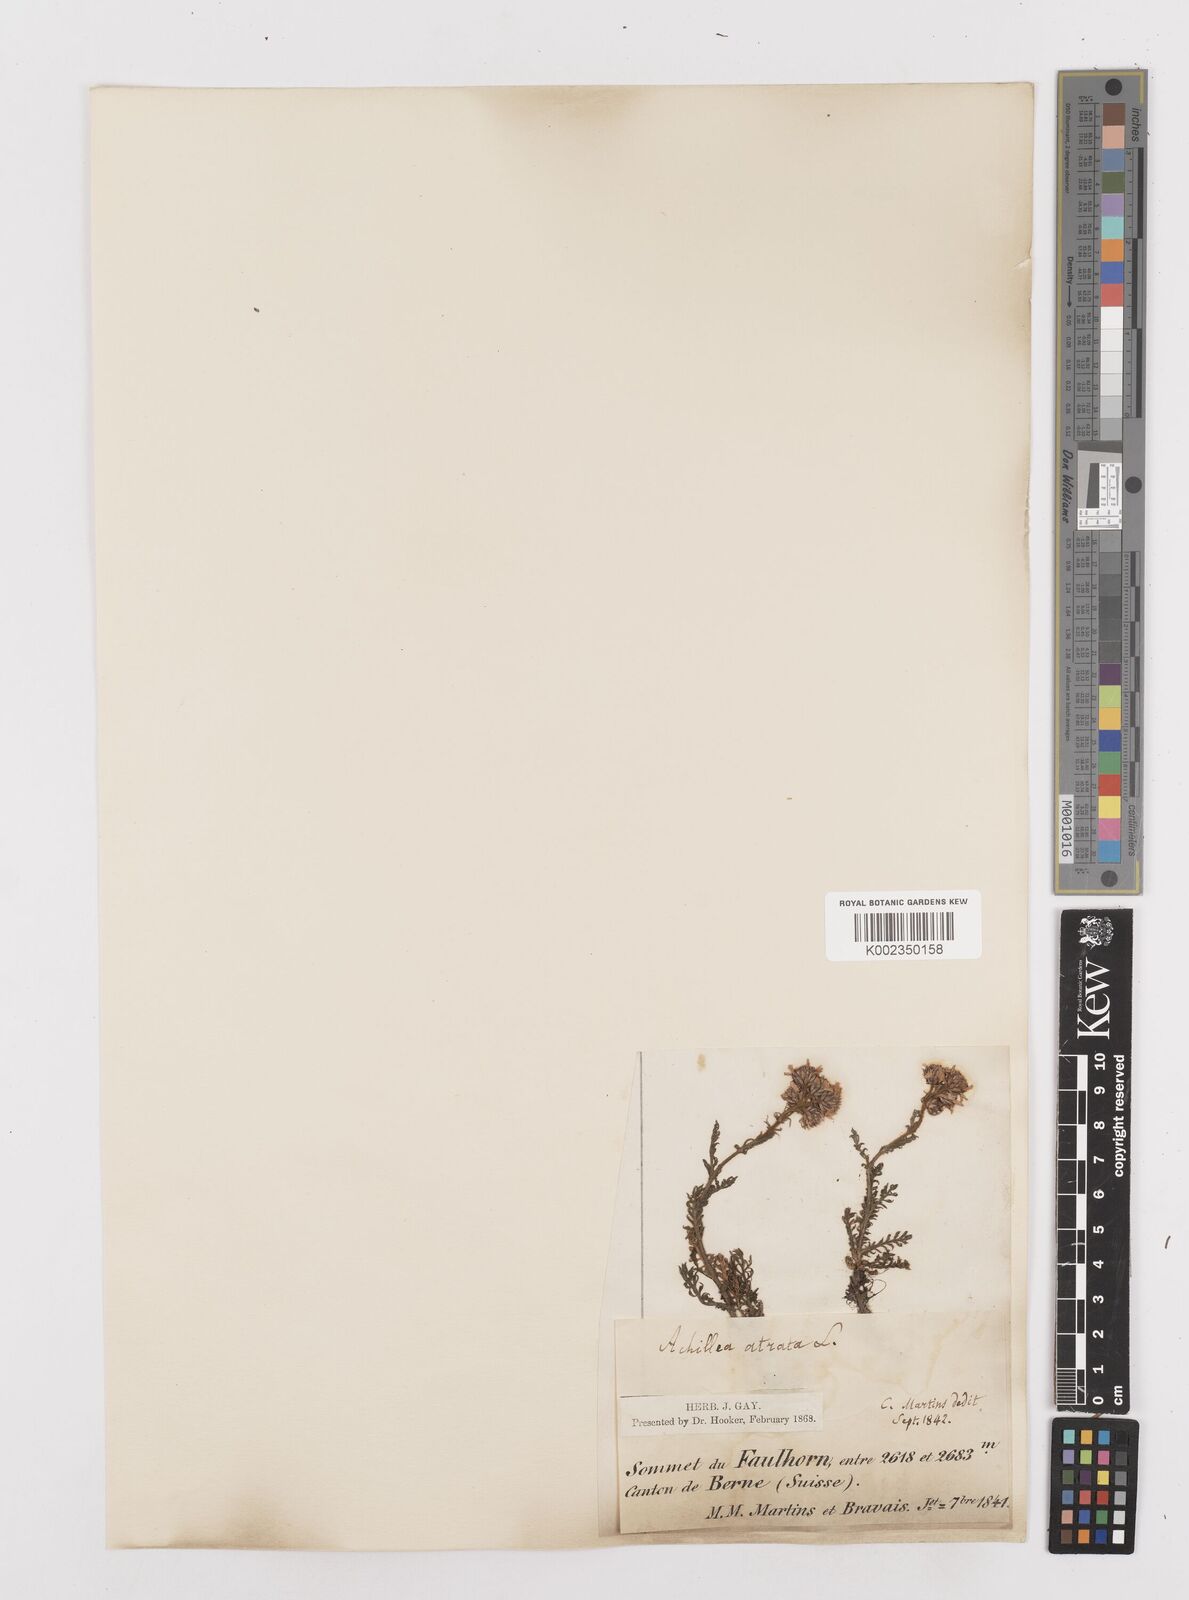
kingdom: Plantae
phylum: Tracheophyta
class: Magnoliopsida
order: Asterales
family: Asteraceae
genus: Achillea
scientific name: Achillea atrata
